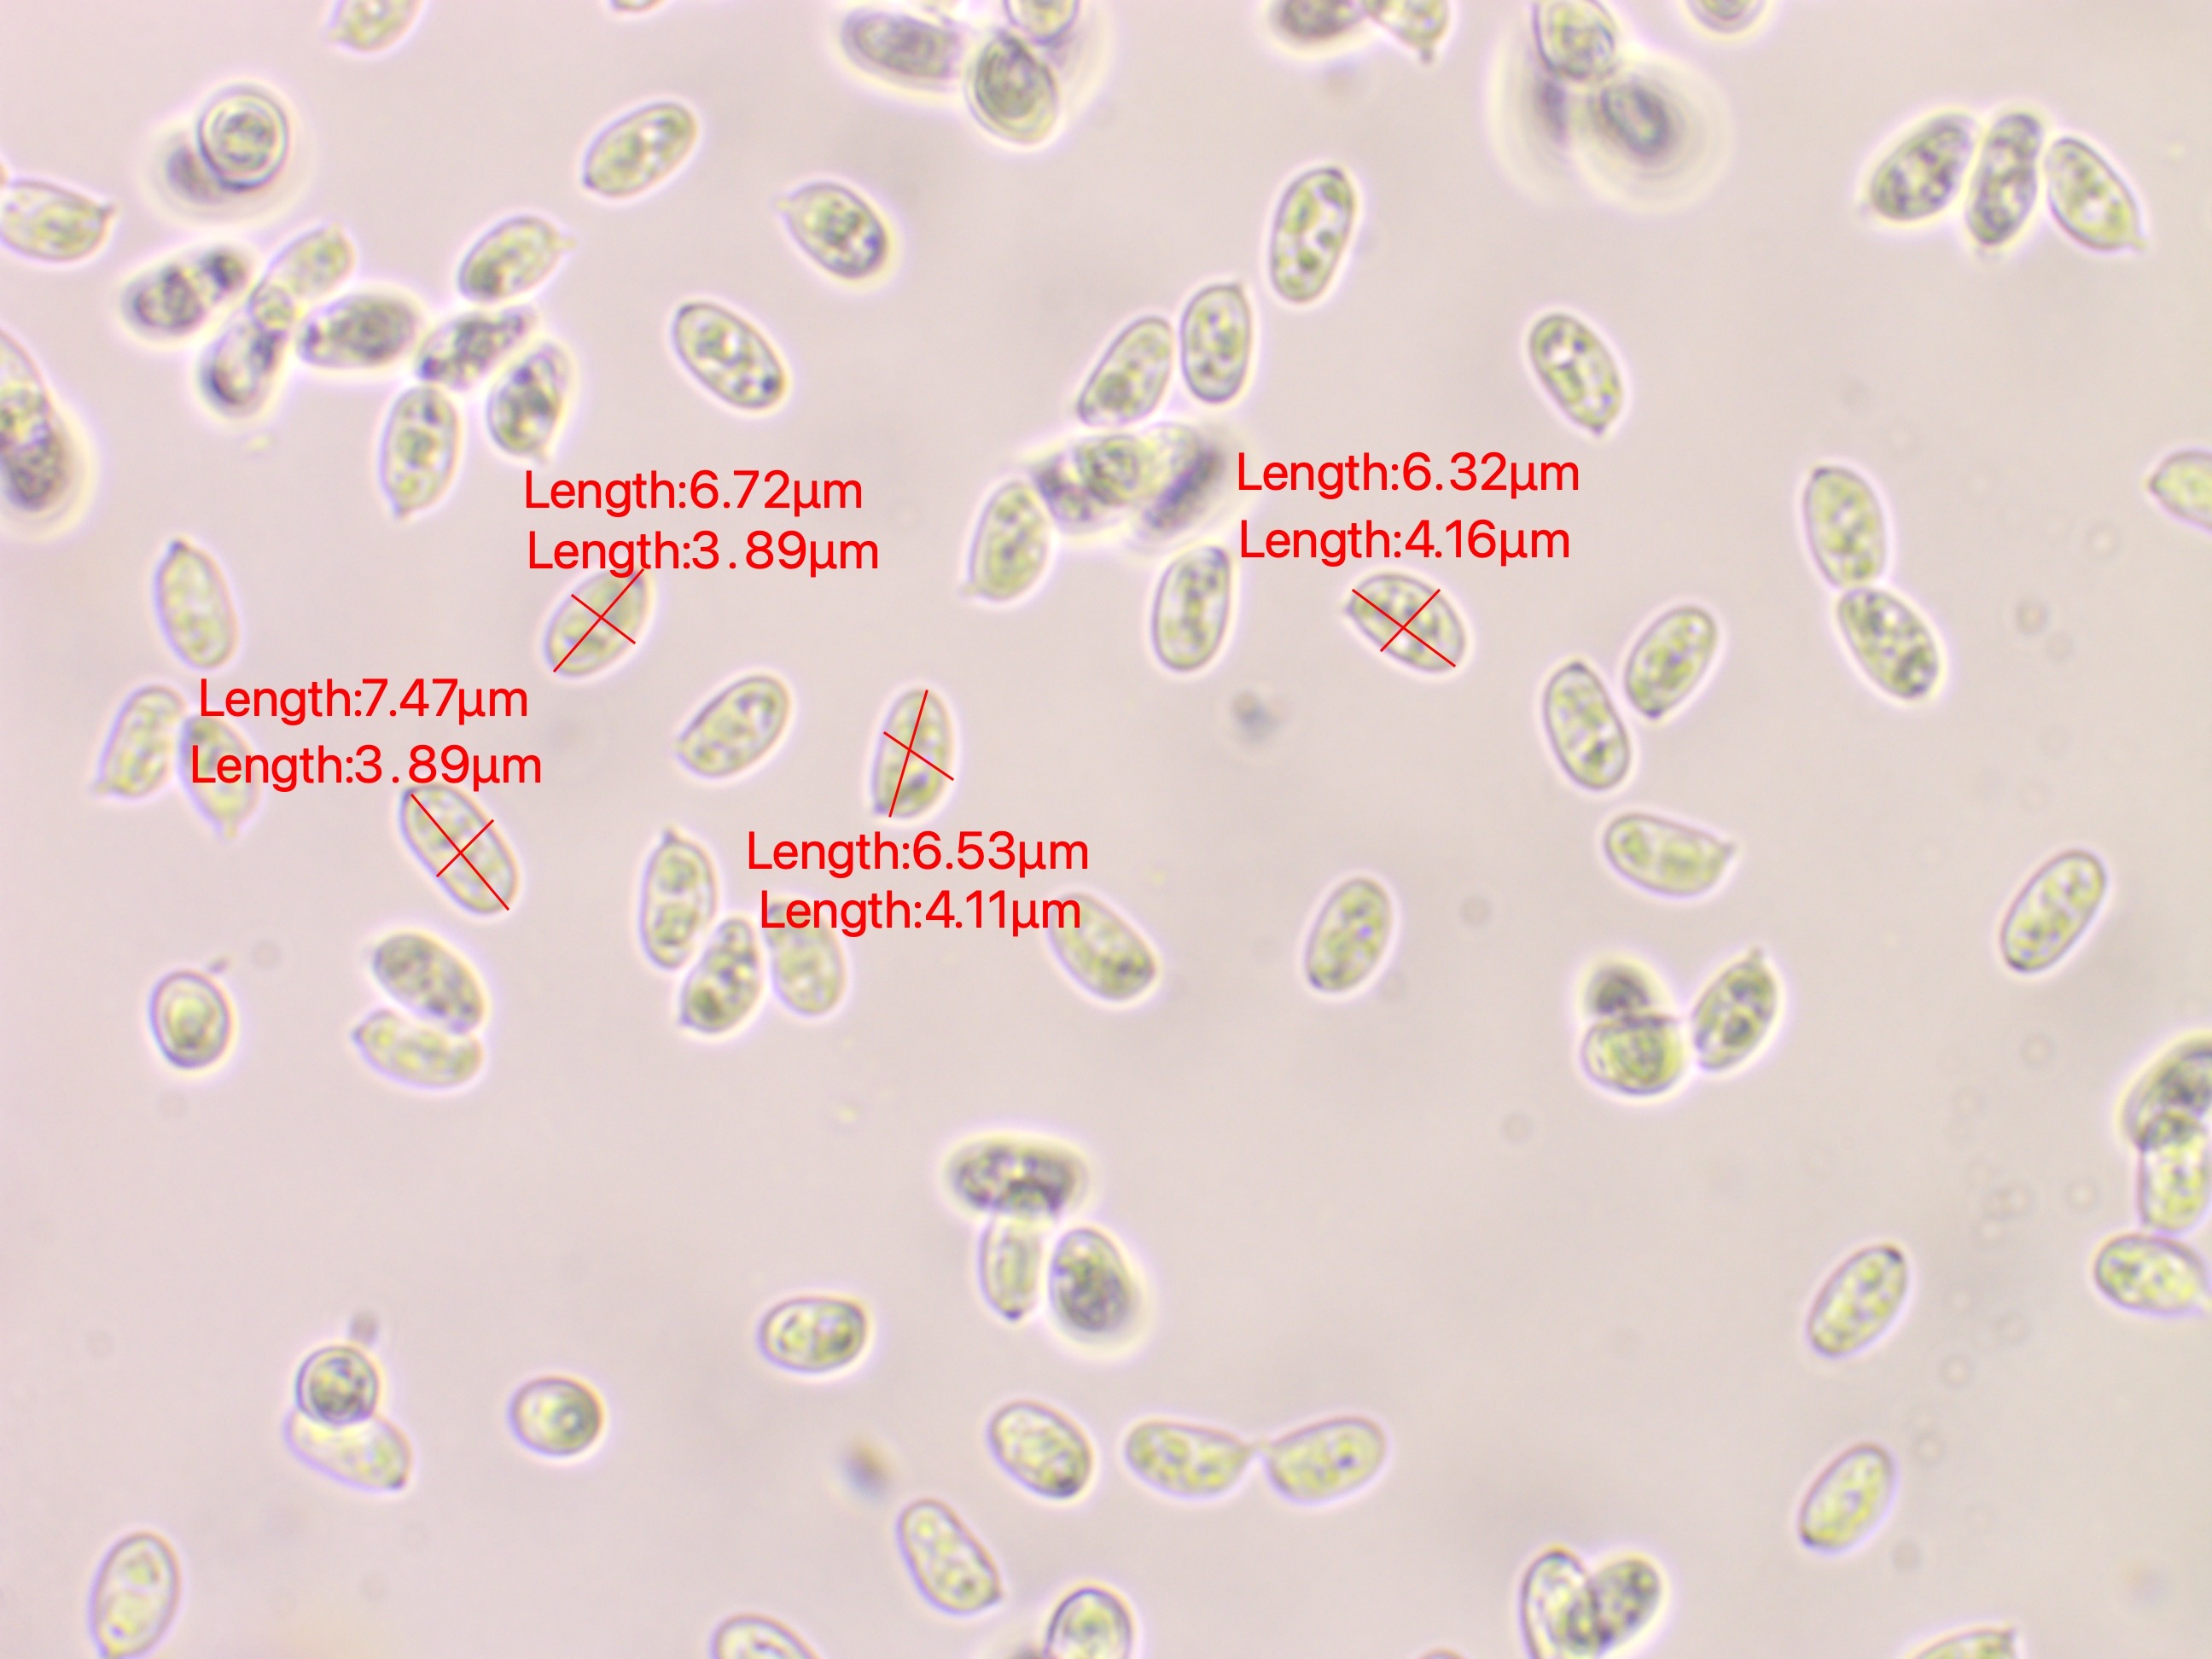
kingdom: Fungi
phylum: Basidiomycota
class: Agaricomycetes
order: Agaricales
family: Agaricaceae
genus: Lepiota
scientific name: Lepiota subincarnata
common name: kødfarvet parasolhat
